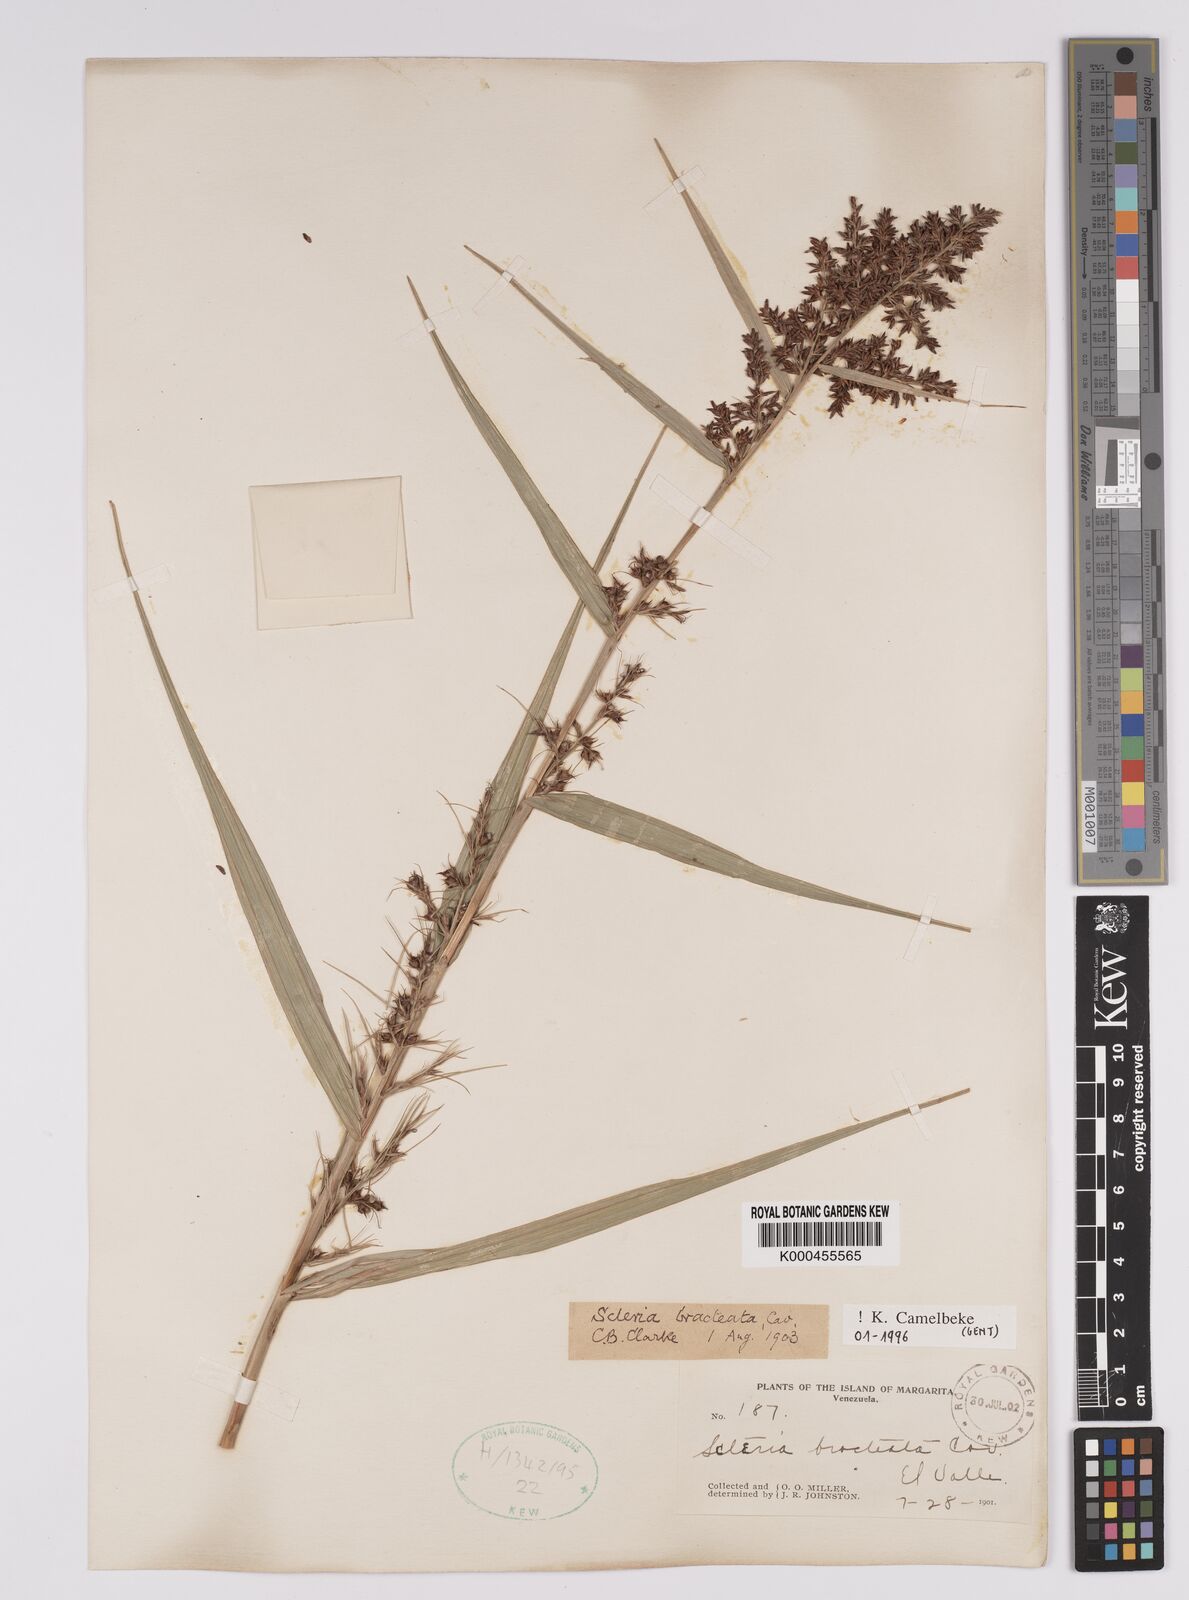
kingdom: Plantae
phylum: Tracheophyta
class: Liliopsida
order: Poales
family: Cyperaceae
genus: Scleria
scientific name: Scleria bracteata
